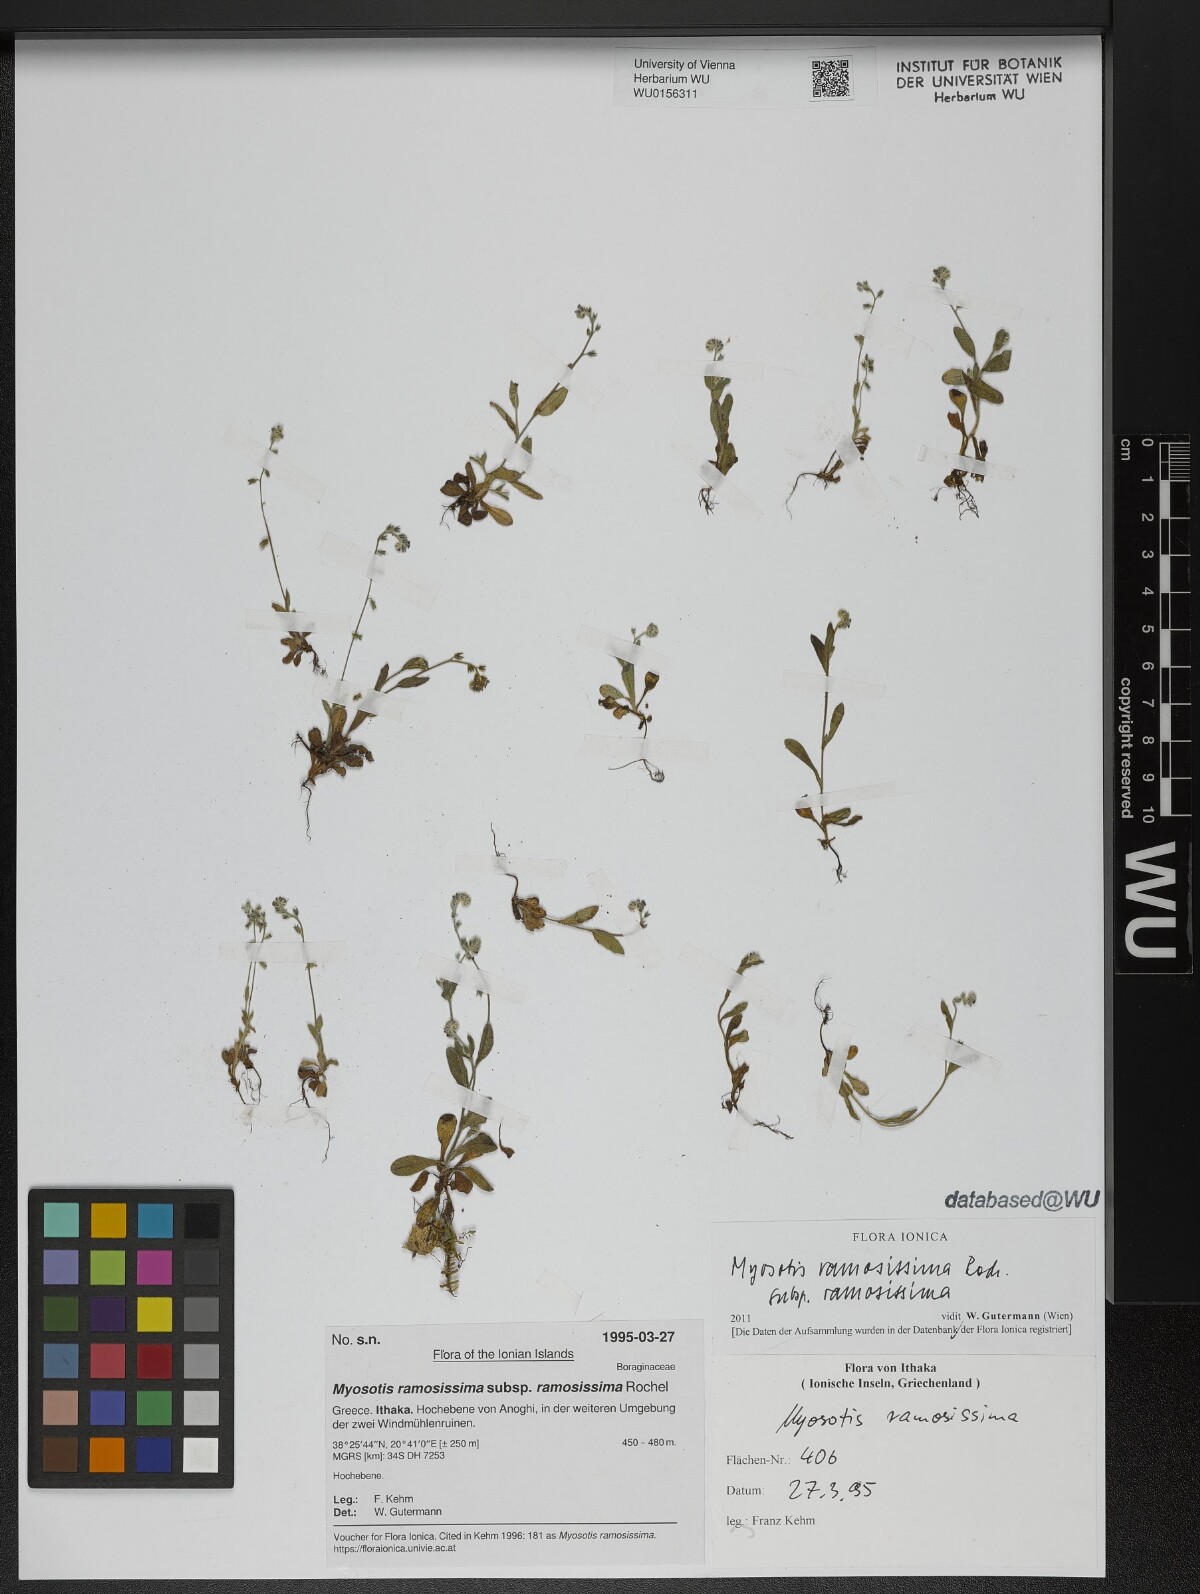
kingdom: Plantae
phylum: Tracheophyta
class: Magnoliopsida
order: Boraginales
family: Boraginaceae
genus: Myosotis
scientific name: Myosotis ramosissima
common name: Early forget-me-not
